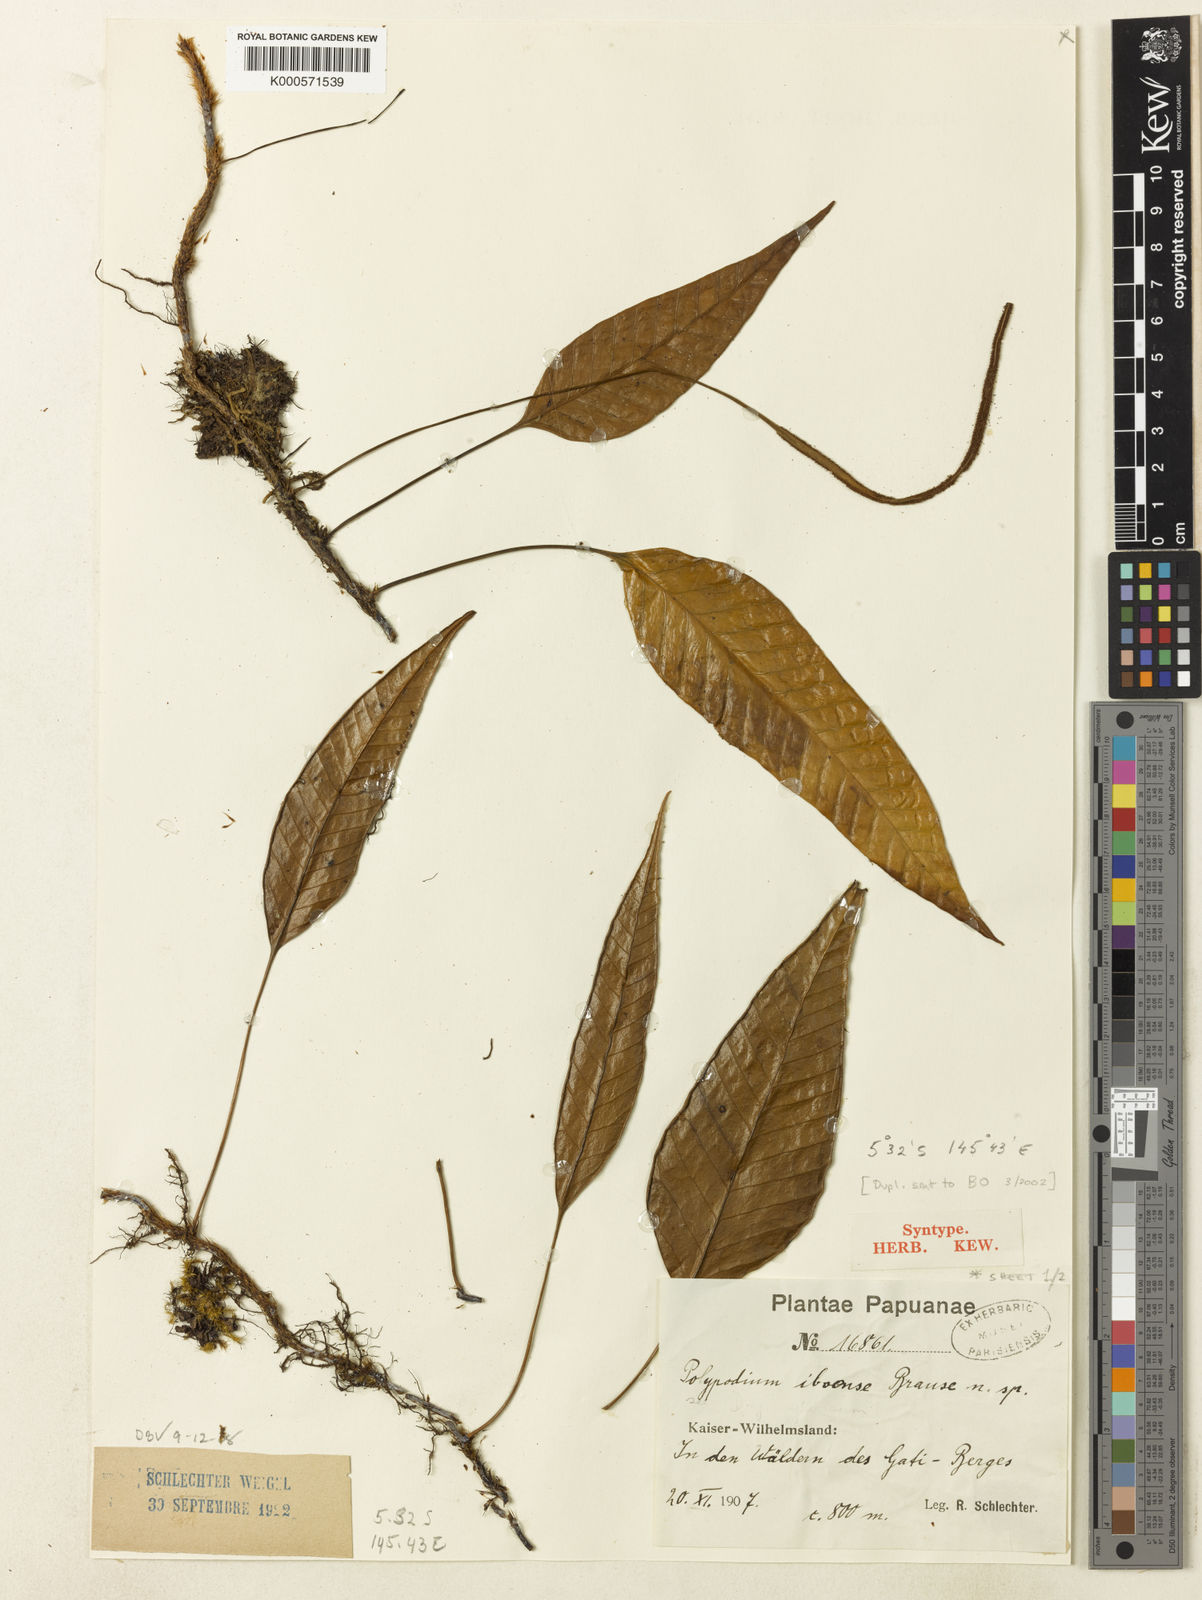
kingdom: Plantae
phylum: Tracheophyta
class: Polypodiopsida
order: Polypodiales
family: Polypodiaceae
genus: Selliguea
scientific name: Selliguea costulata
